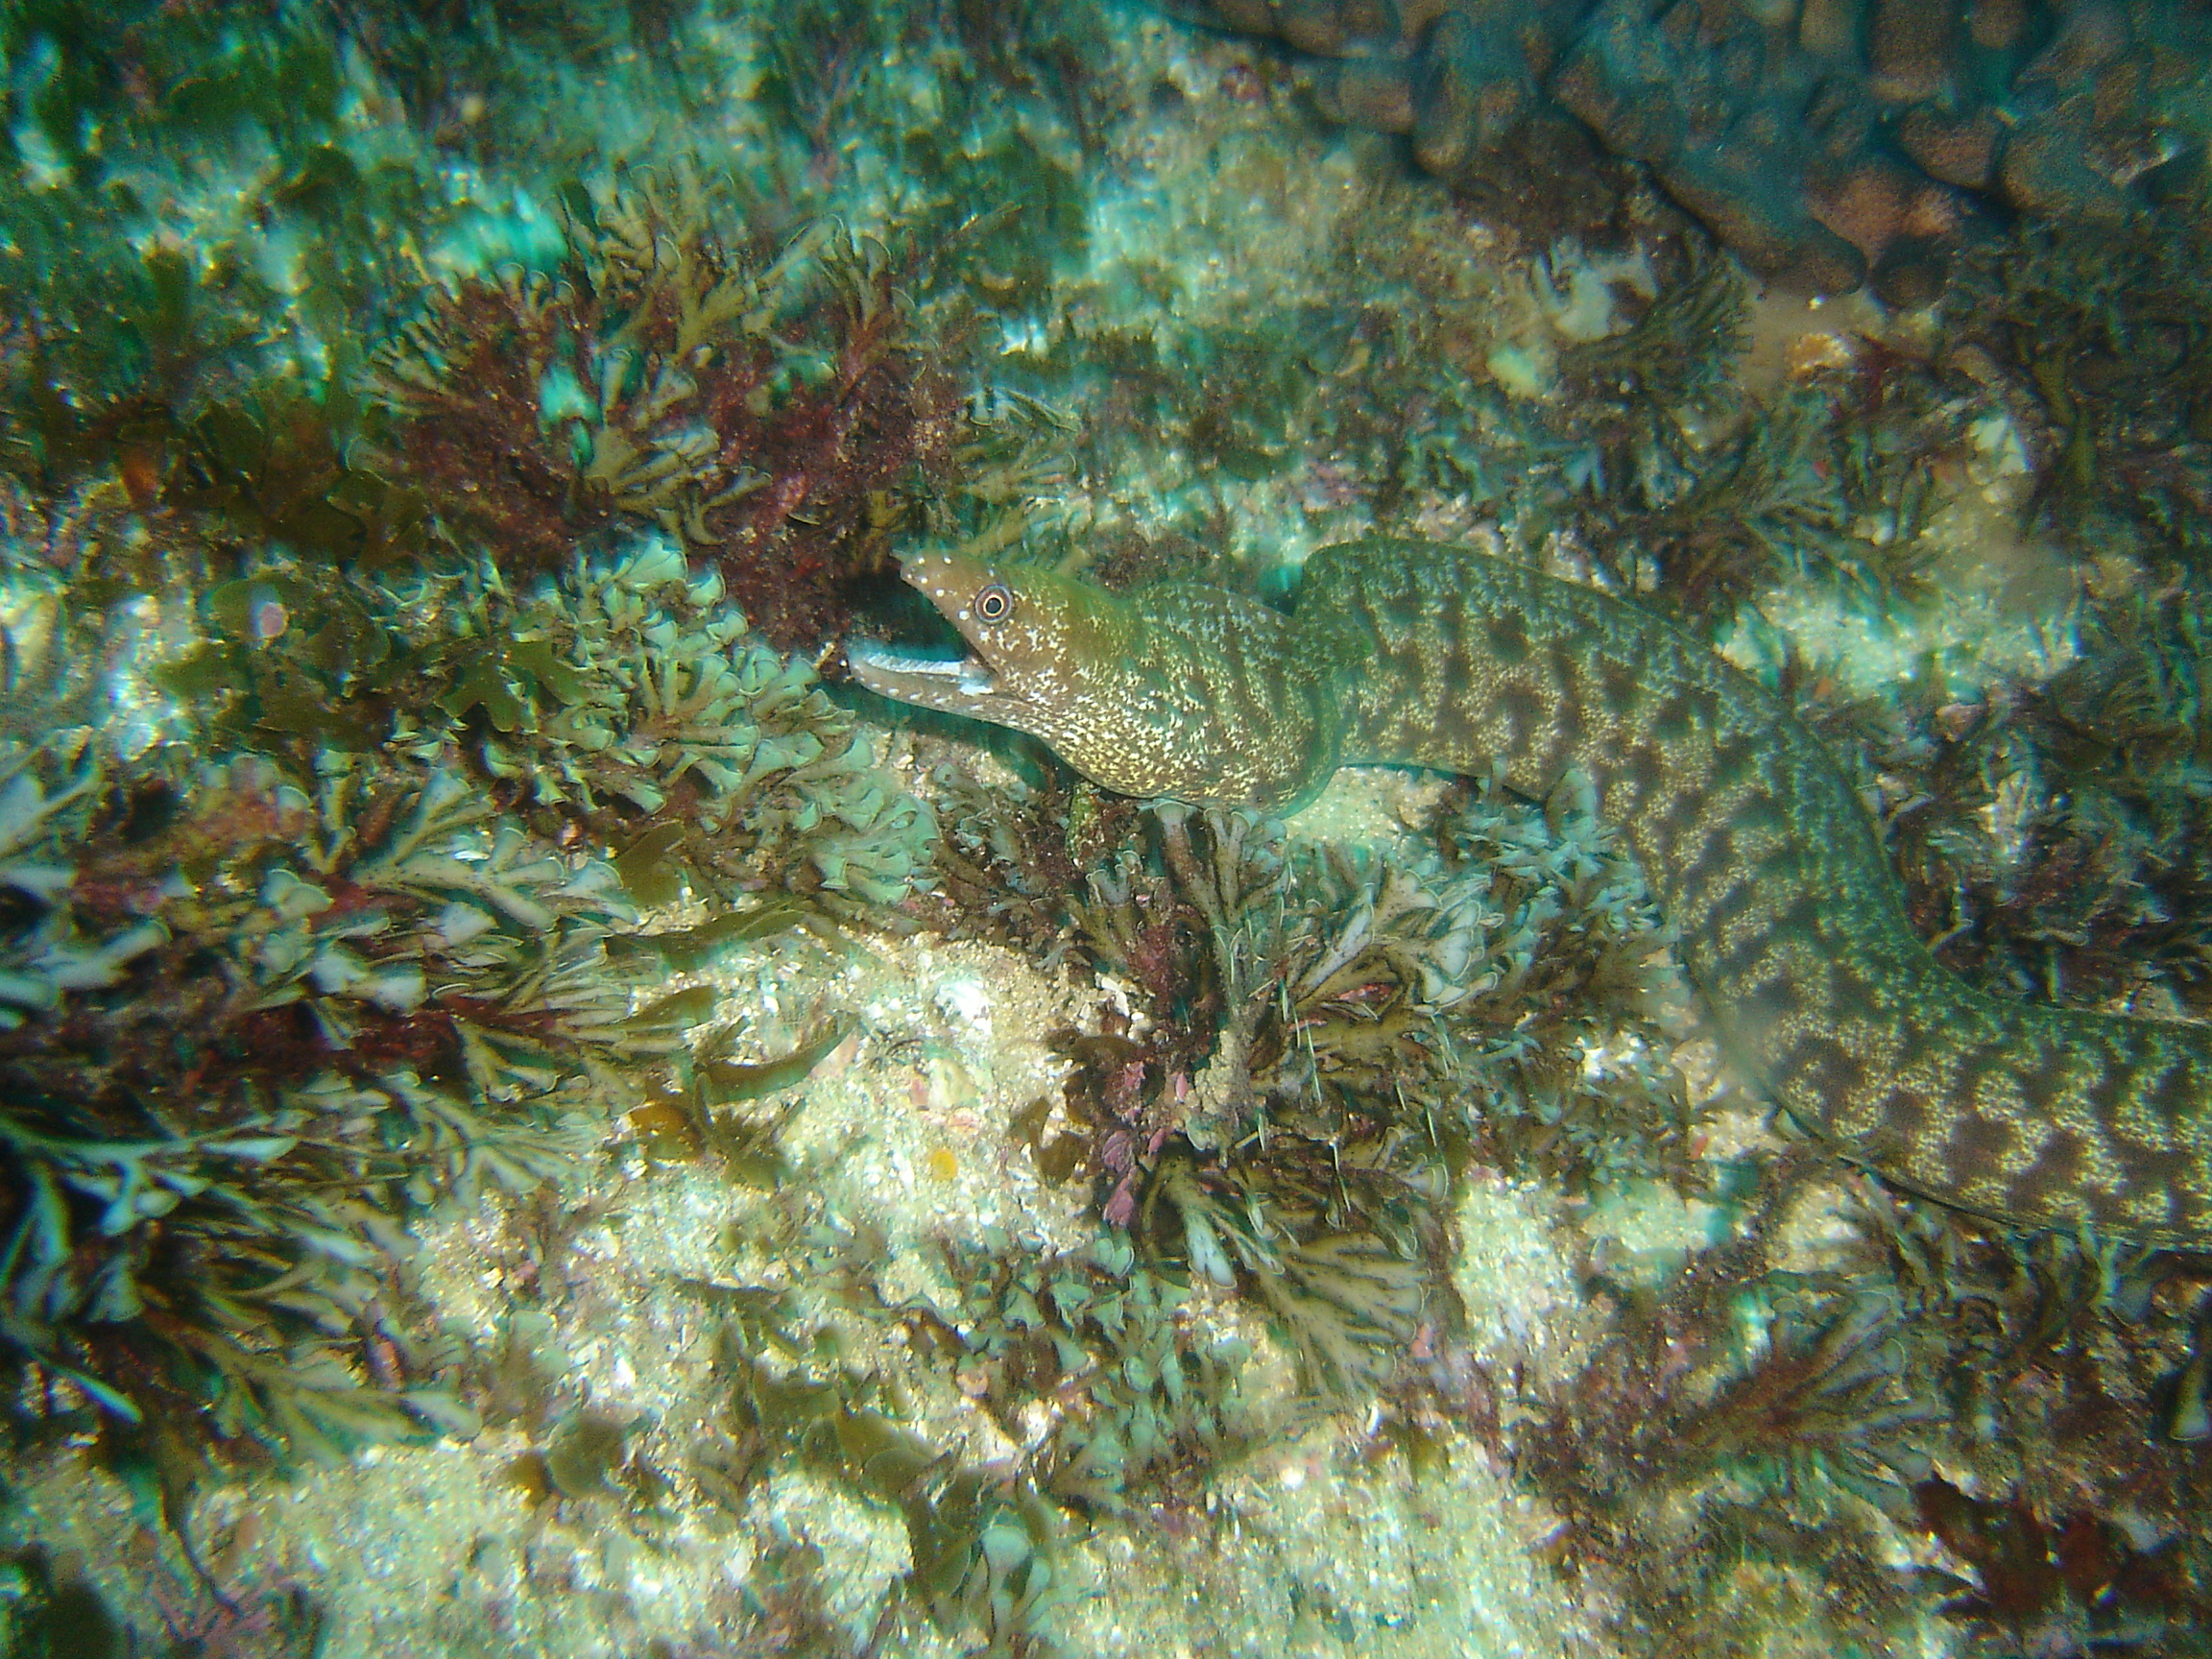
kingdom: Animalia
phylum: Chordata
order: Anguilliformes
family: Muraenidae
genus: Gymnothorax
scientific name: Gymnothorax chilospilus
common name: Lipspot moray
